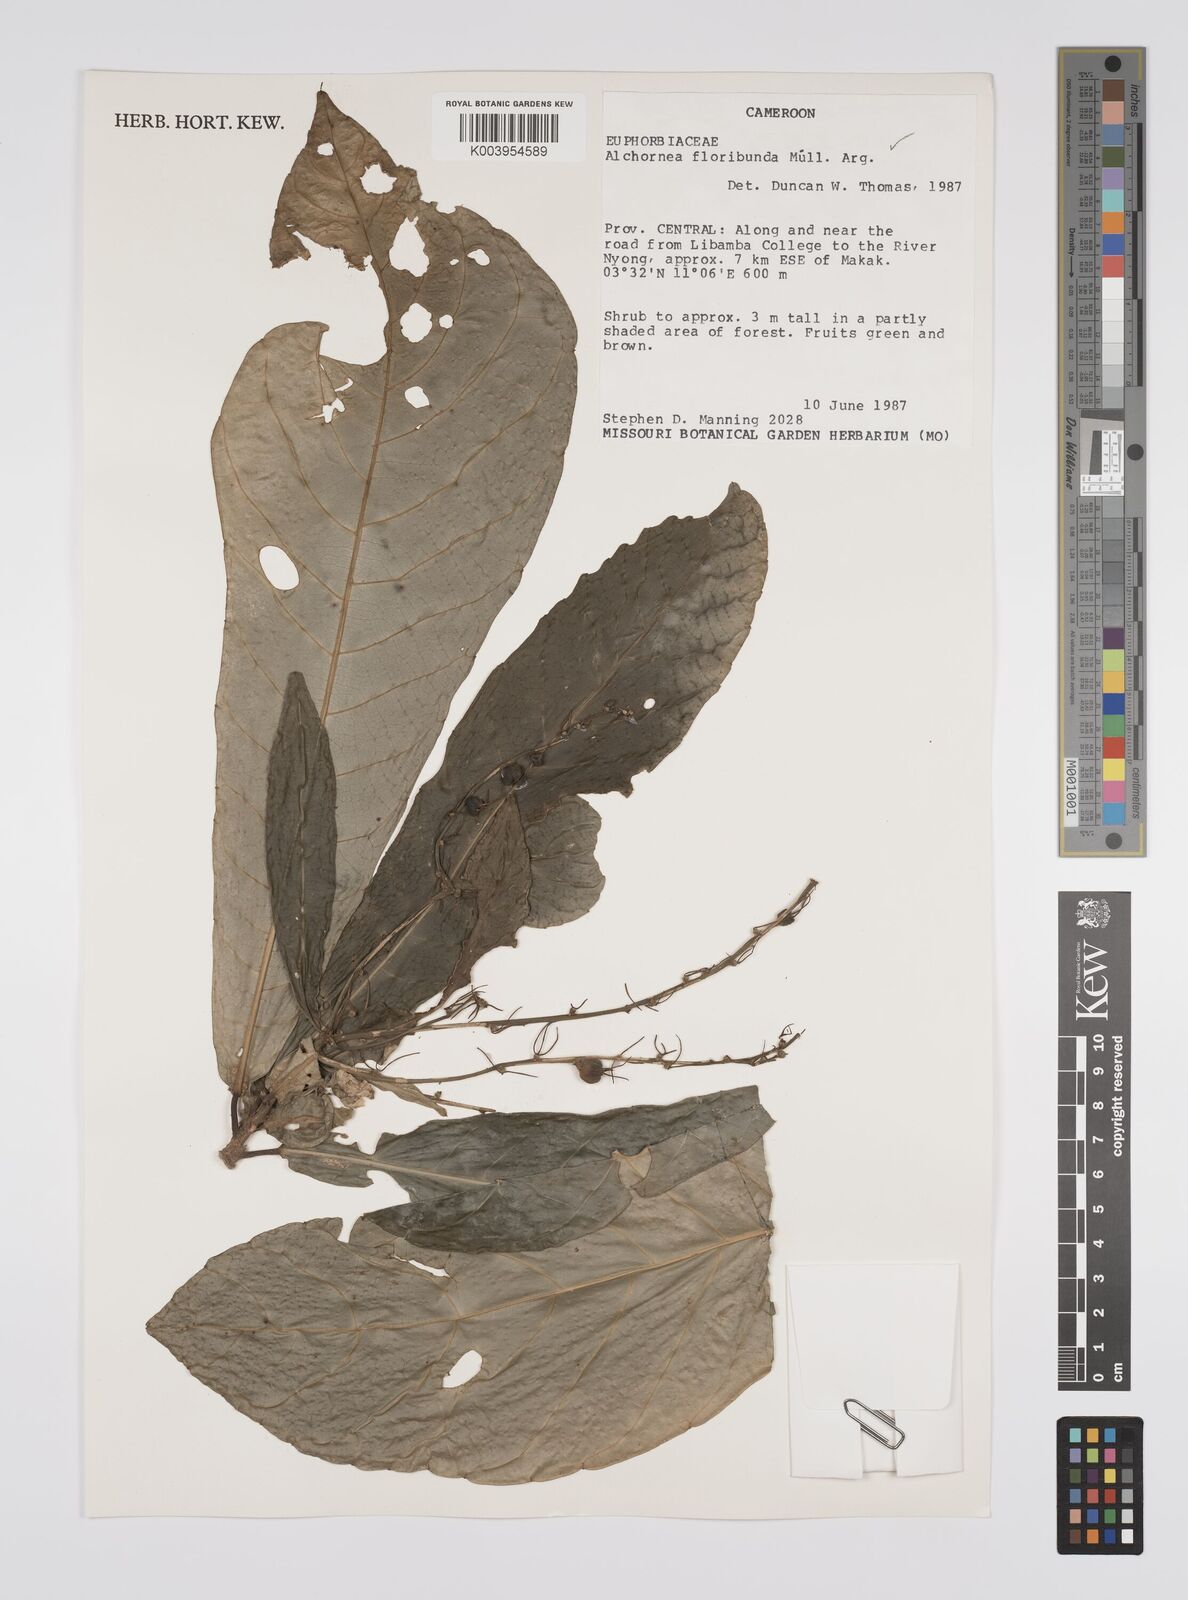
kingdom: Plantae
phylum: Tracheophyta
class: Magnoliopsida
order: Malpighiales
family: Euphorbiaceae
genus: Alchornea
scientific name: Alchornea floribunda
